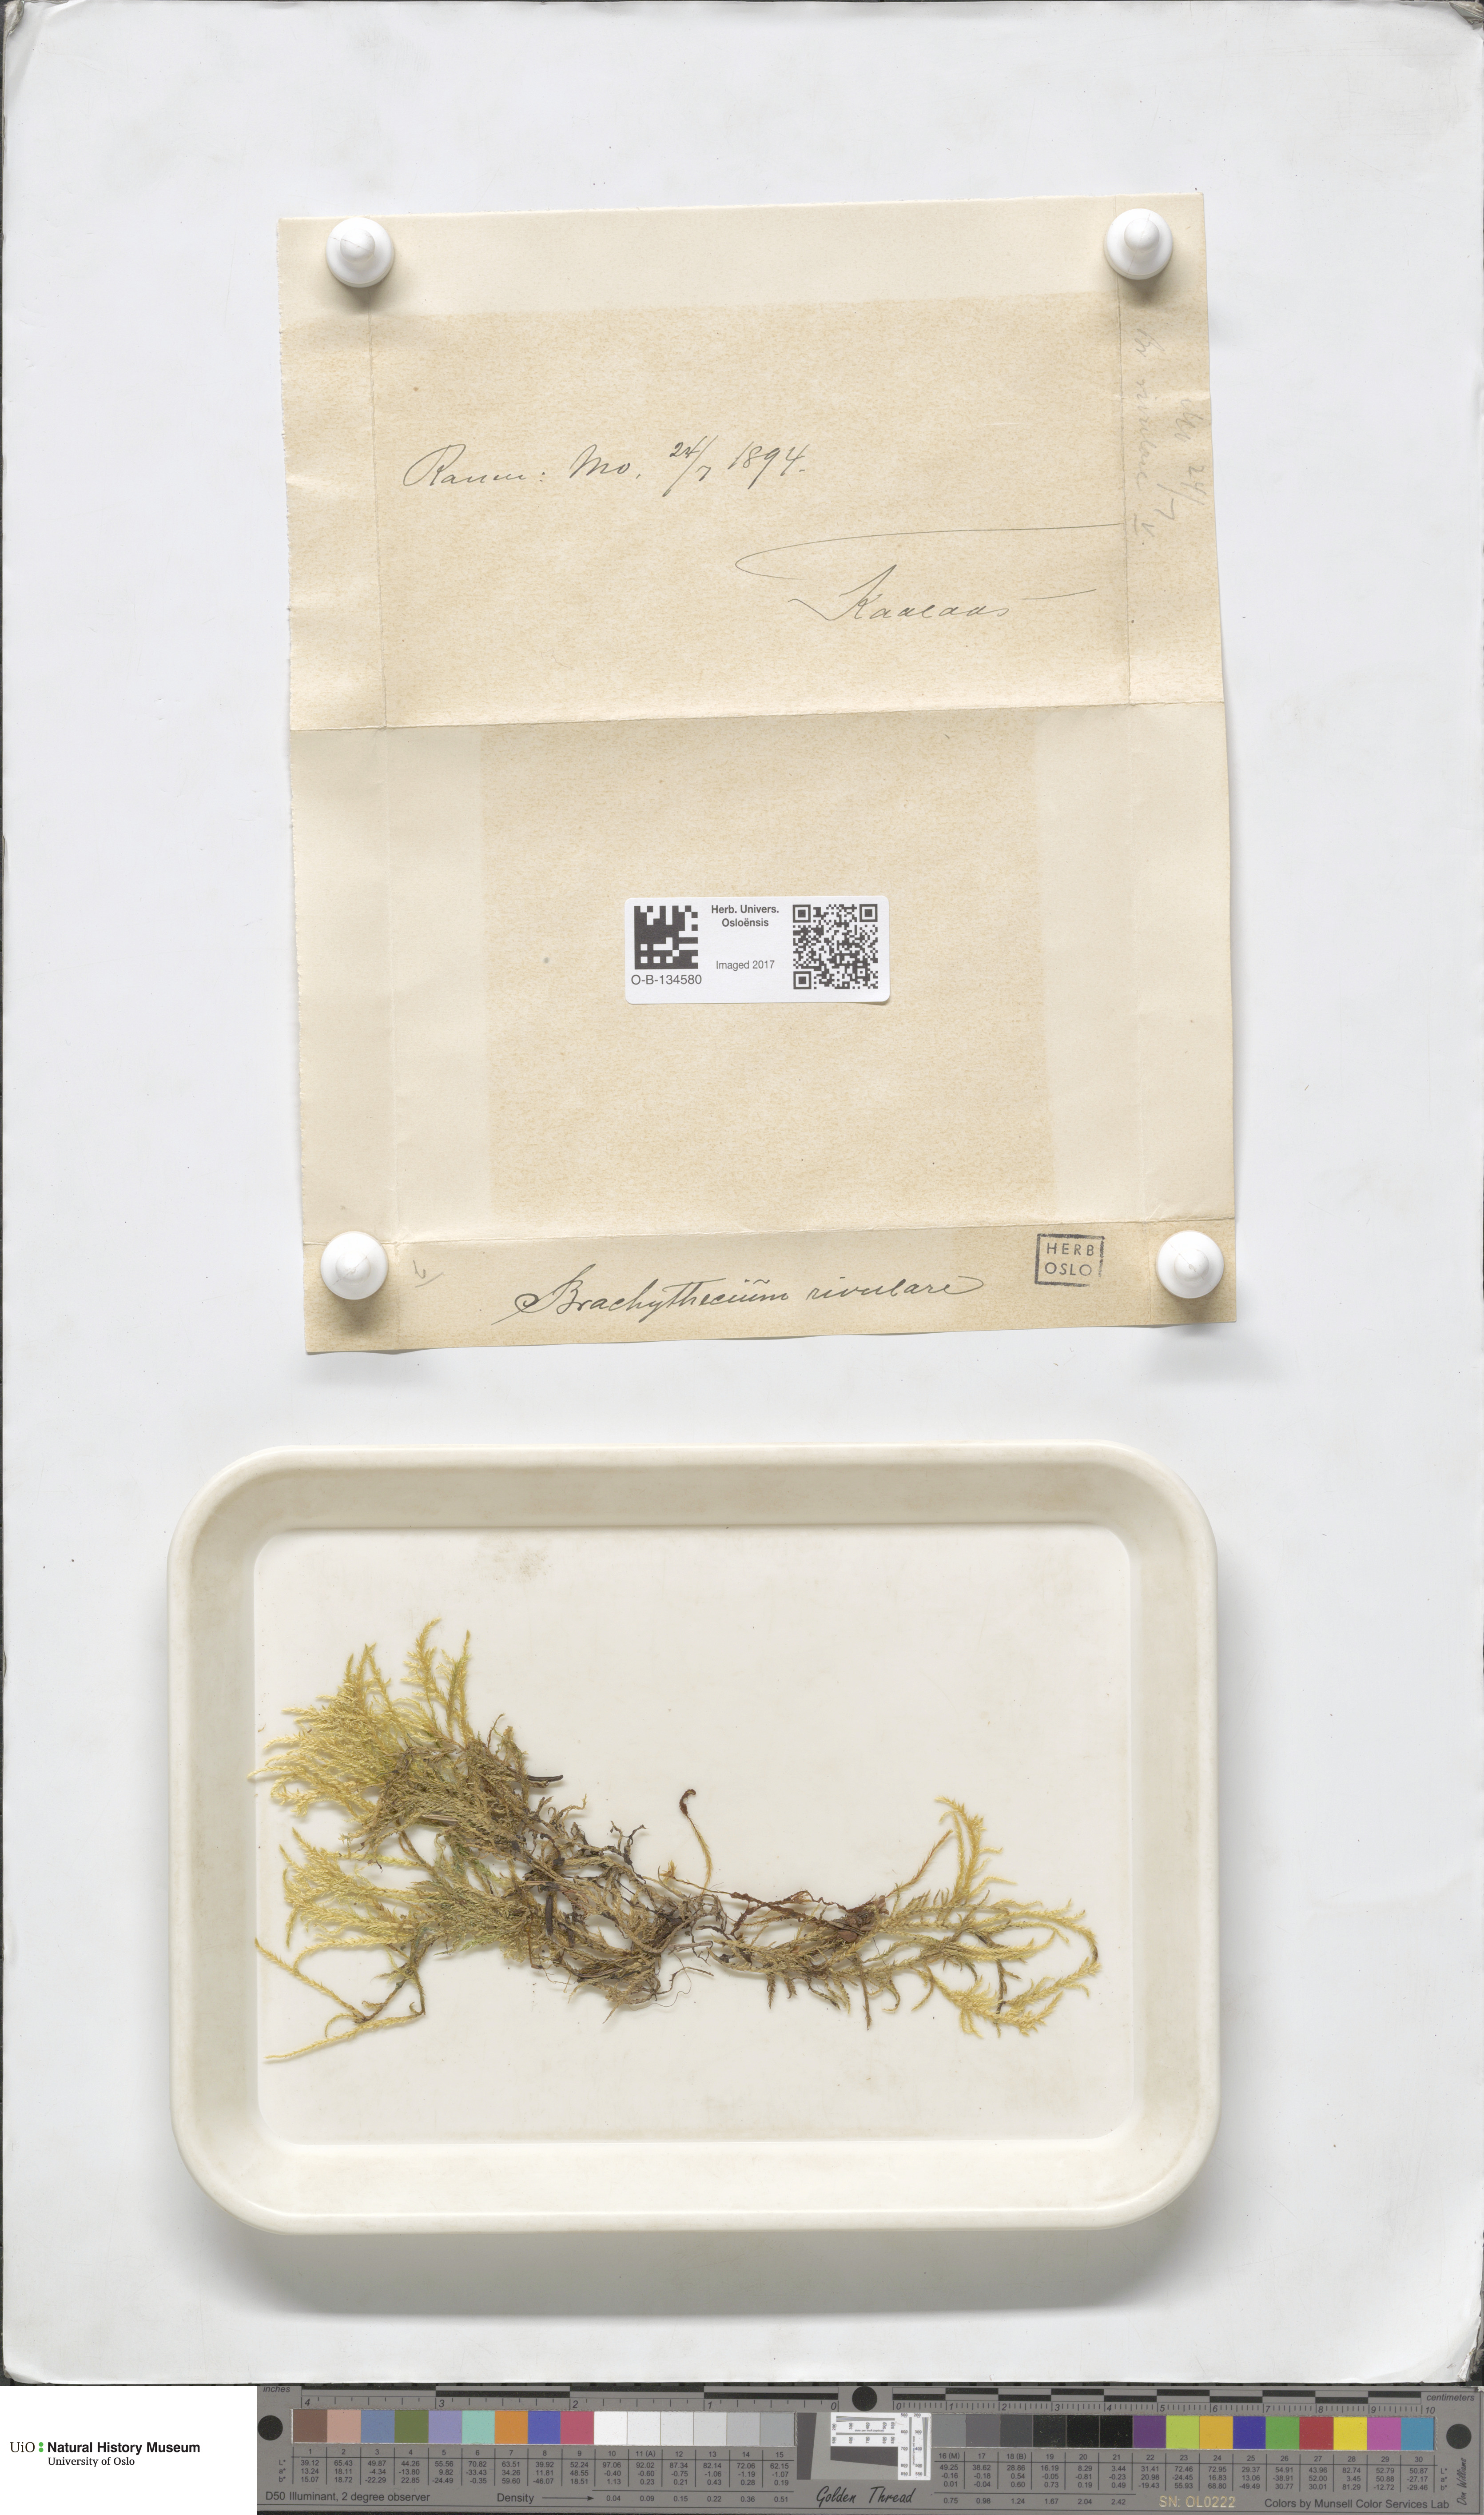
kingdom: Plantae
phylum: Bryophyta
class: Bryopsida
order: Hypnales
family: Brachytheciaceae
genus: Brachythecium
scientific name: Brachythecium rivulare
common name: River ragged moss
